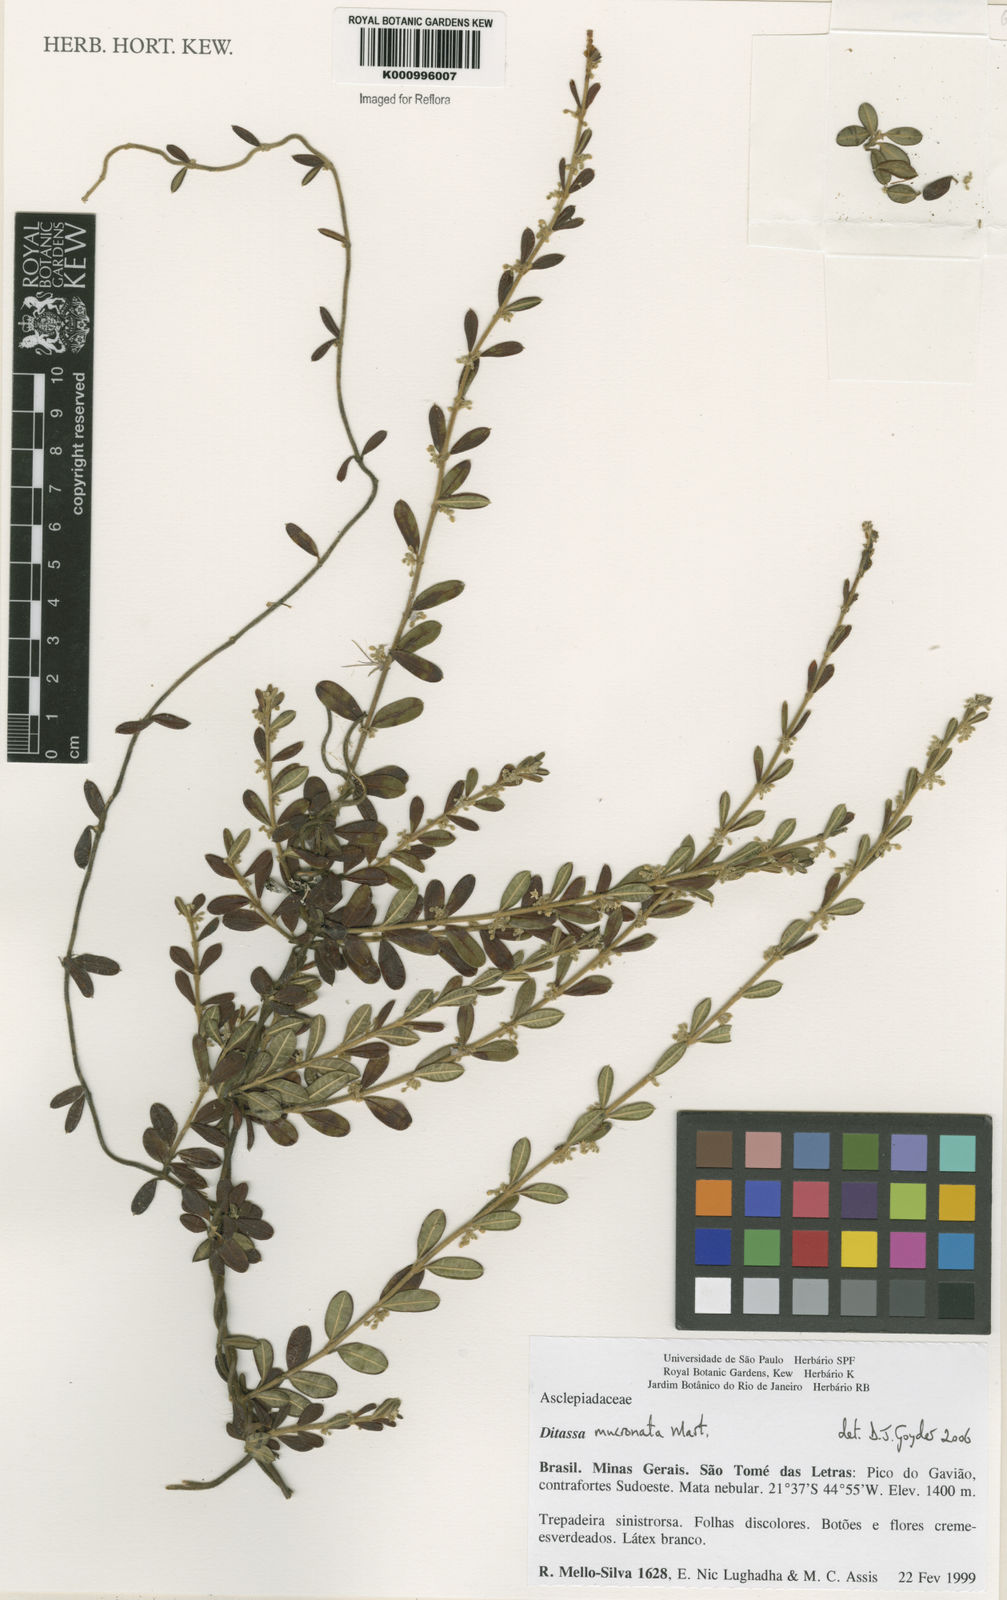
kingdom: Plantae
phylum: Tracheophyta
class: Magnoliopsida
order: Gentianales
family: Apocynaceae
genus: Ditassa
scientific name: Ditassa mucronata
